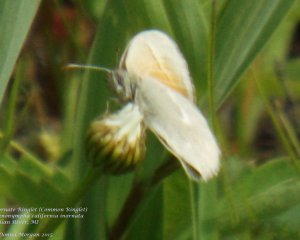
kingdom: Animalia
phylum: Arthropoda
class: Insecta
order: Lepidoptera
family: Nymphalidae
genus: Coenonympha
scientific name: Coenonympha tullia
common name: Large Heath
